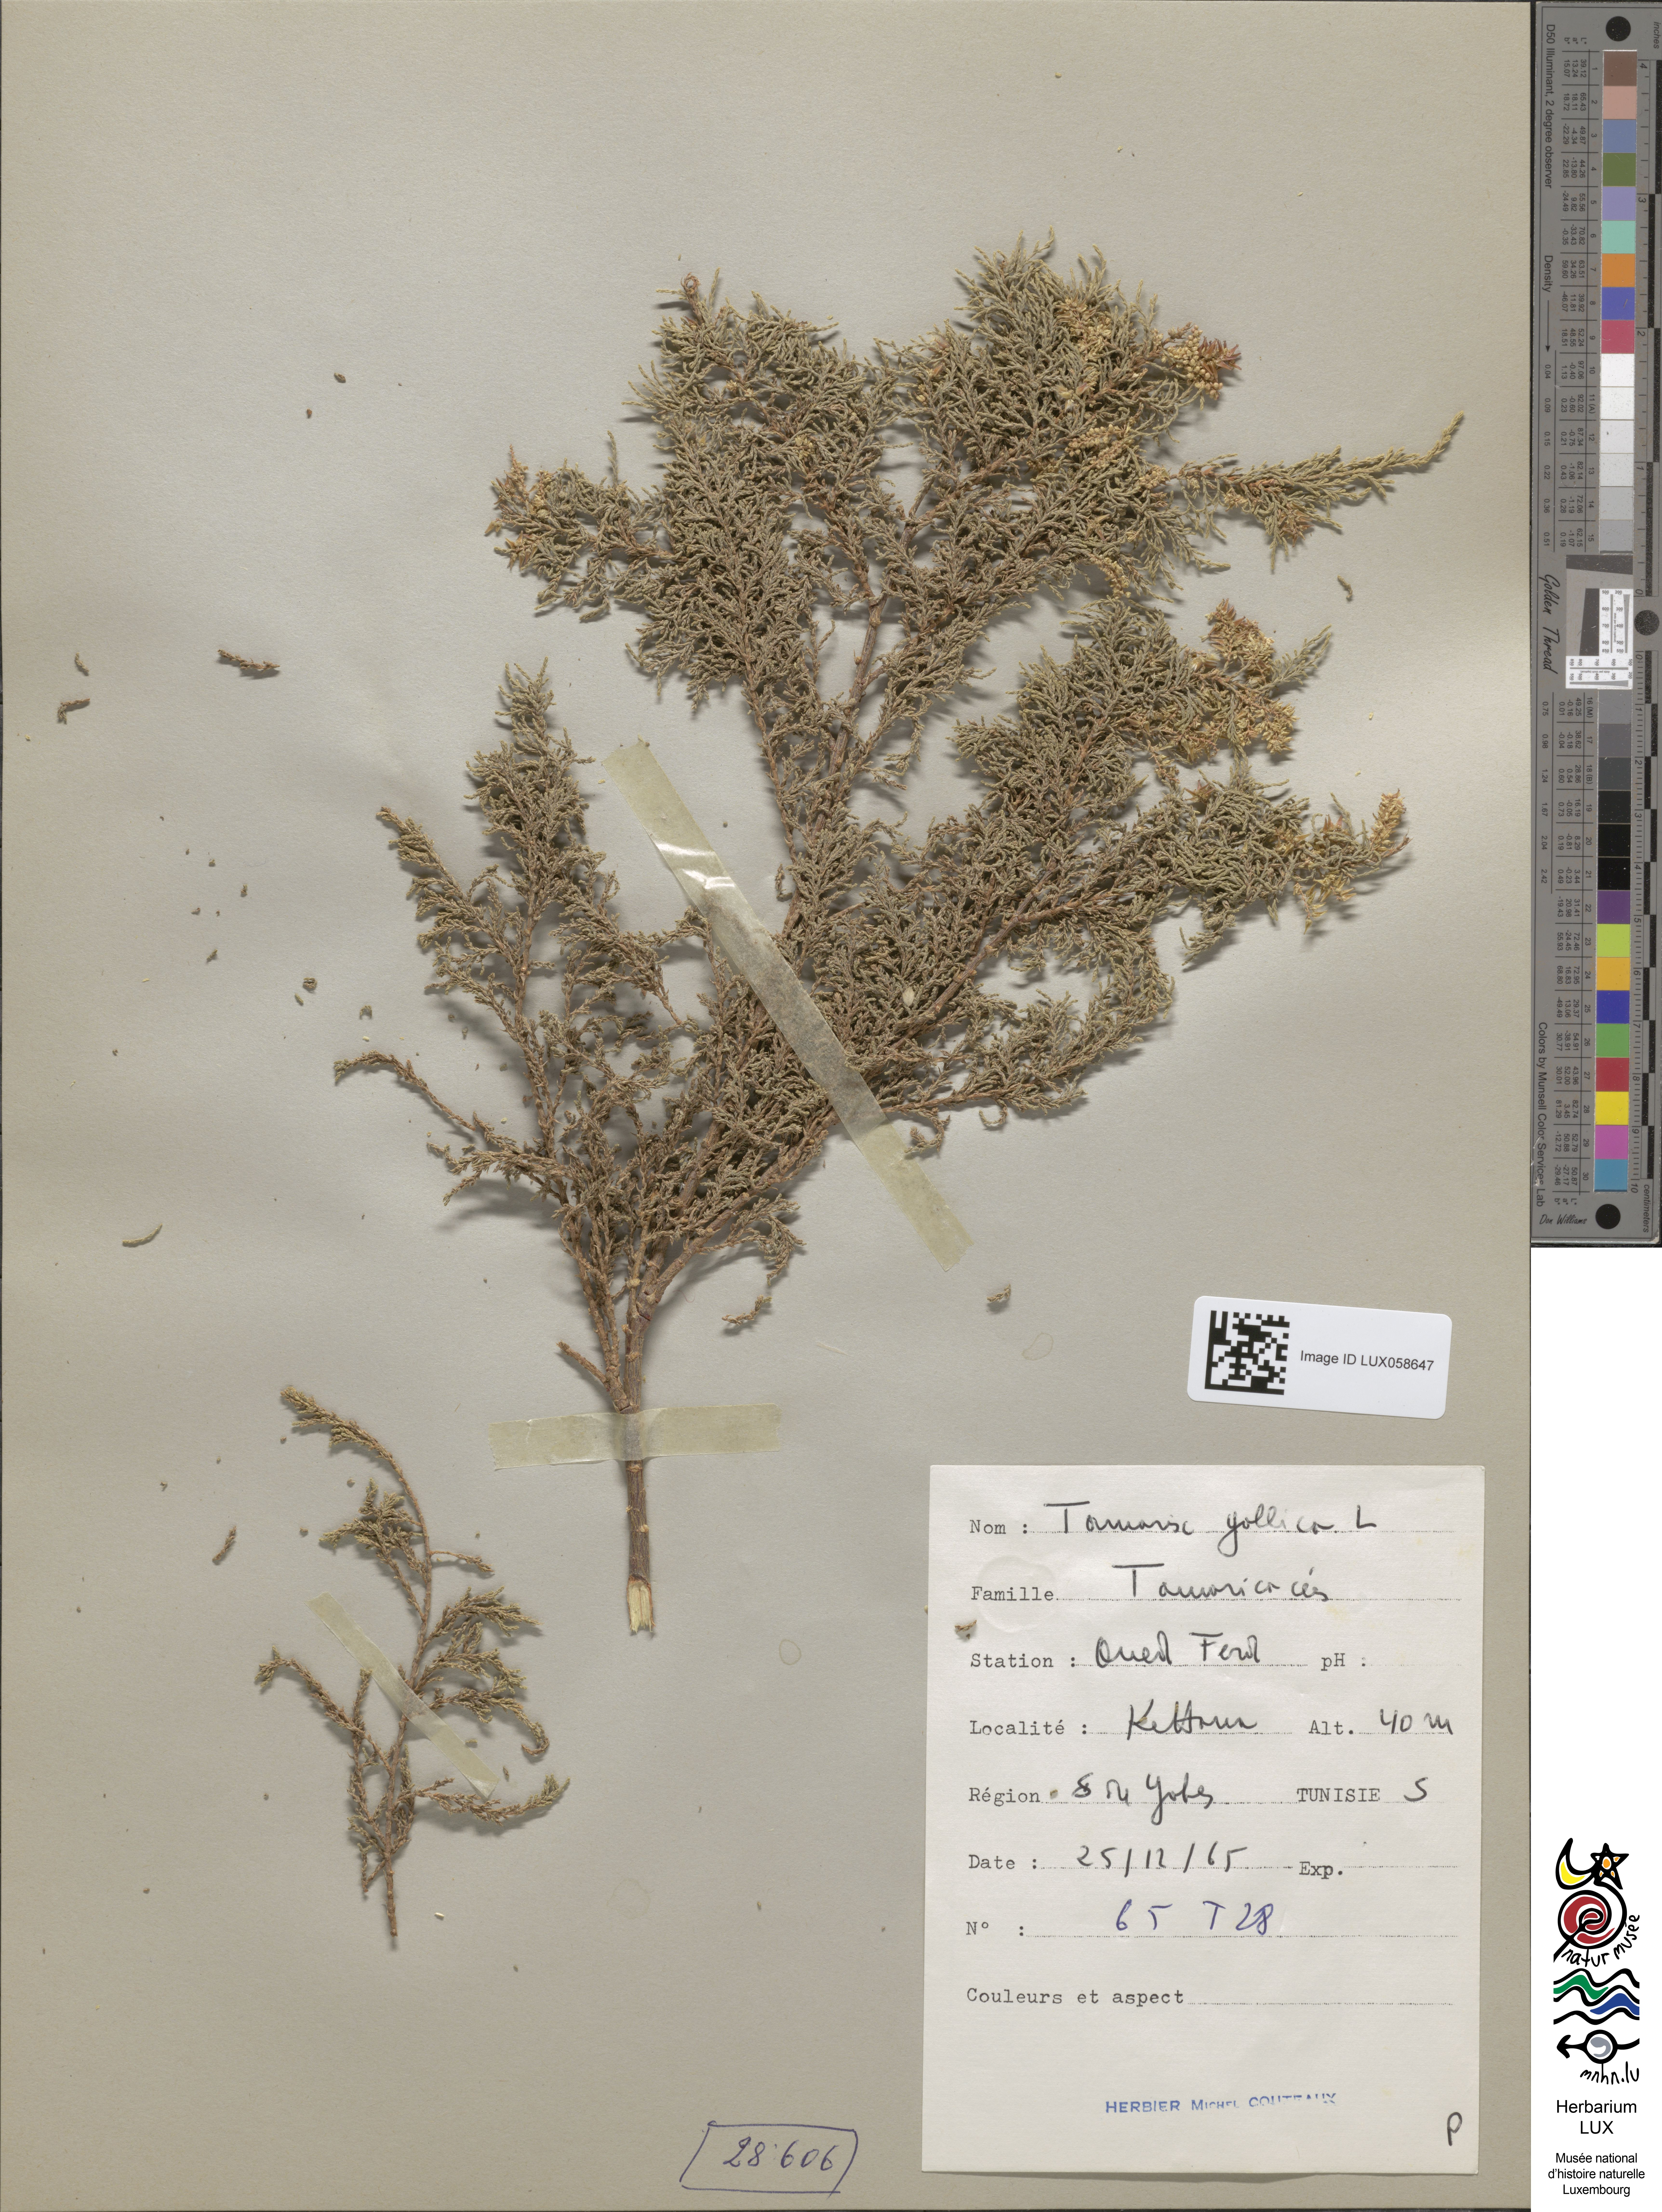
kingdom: Plantae
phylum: Tracheophyta
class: Magnoliopsida
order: Caryophyllales
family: Tamaricaceae
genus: Tamarix
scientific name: Tamarix gallica
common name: Tamarisk
